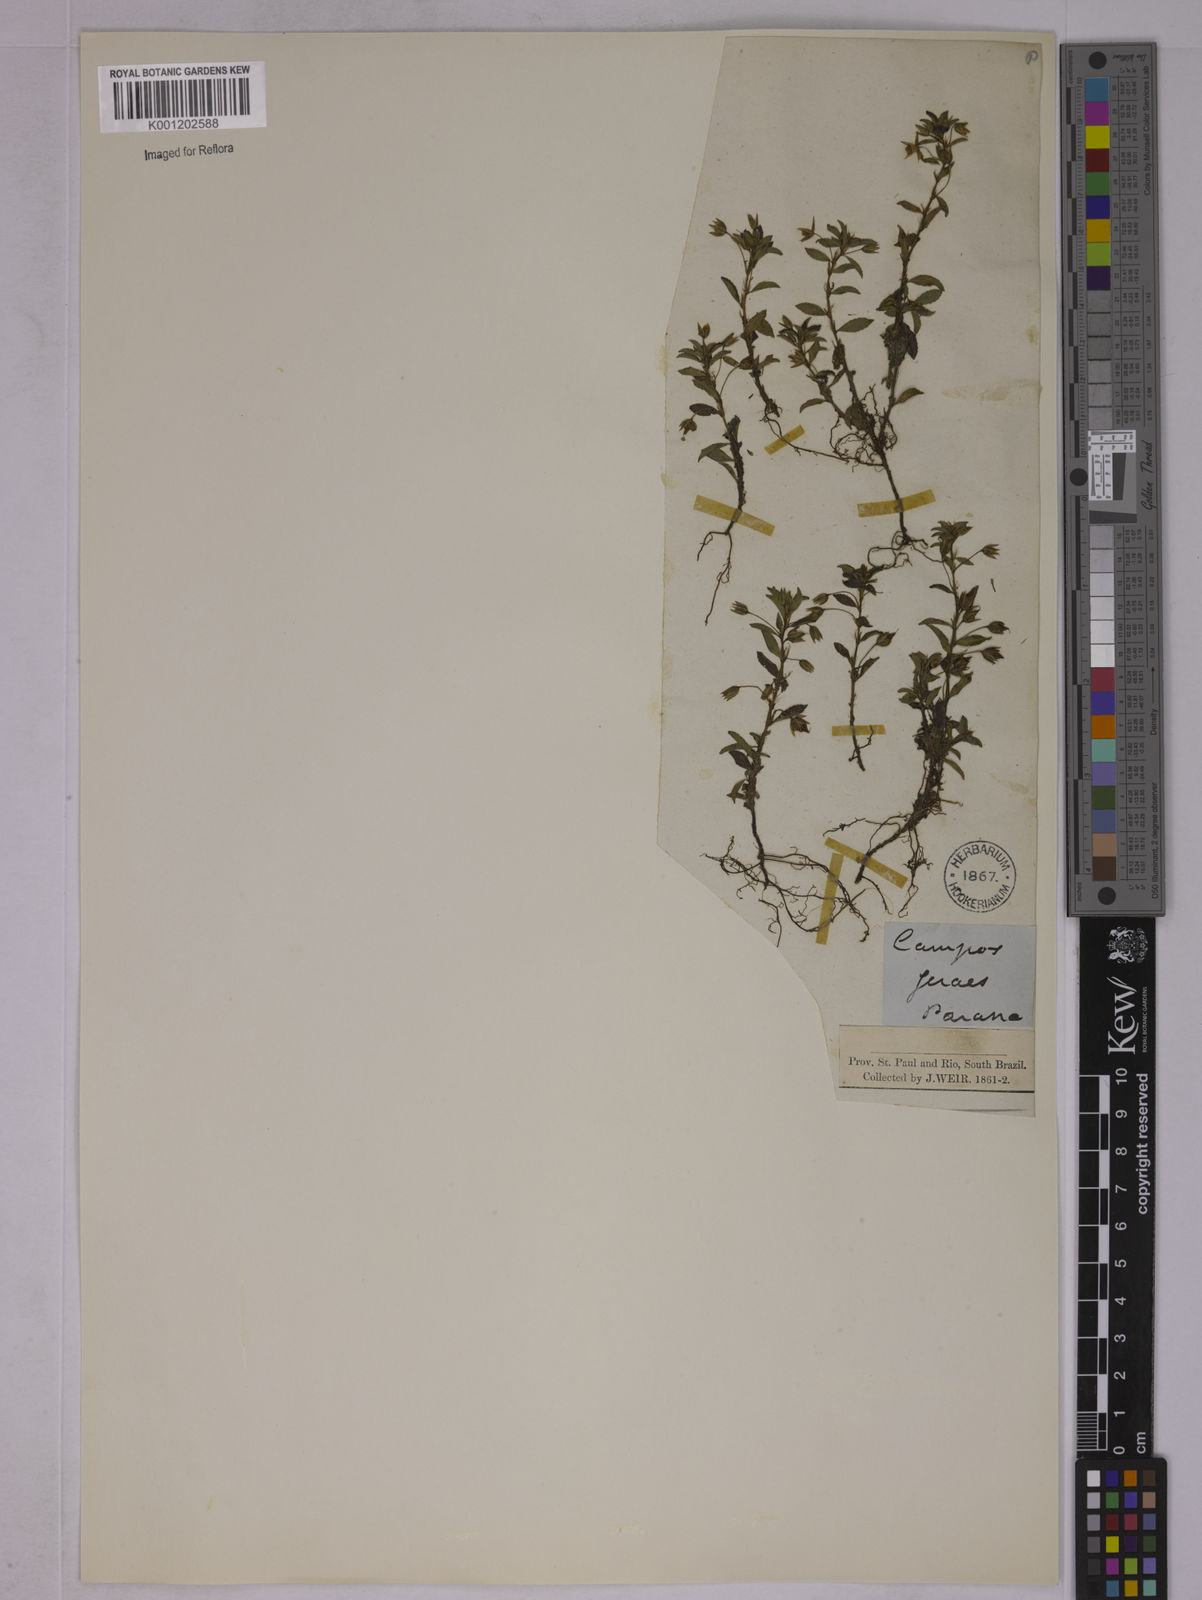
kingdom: Plantae
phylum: Tracheophyta
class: Magnoliopsida
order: Malpighiales
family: Ochnaceae
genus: Sauvagesia
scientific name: Sauvagesia erecta
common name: Creole tea
